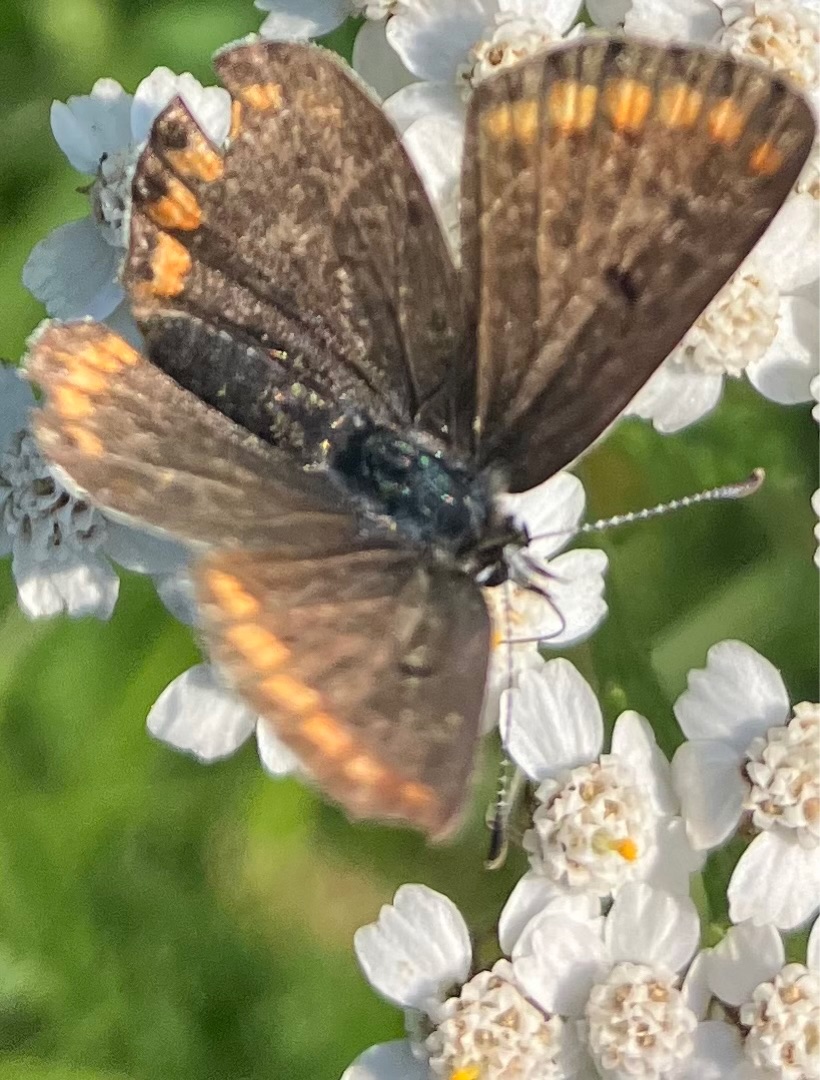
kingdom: Animalia
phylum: Arthropoda
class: Insecta
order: Lepidoptera
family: Lycaenidae
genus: Aricia
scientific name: Aricia agestis
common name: Rødplettet blåfugl
